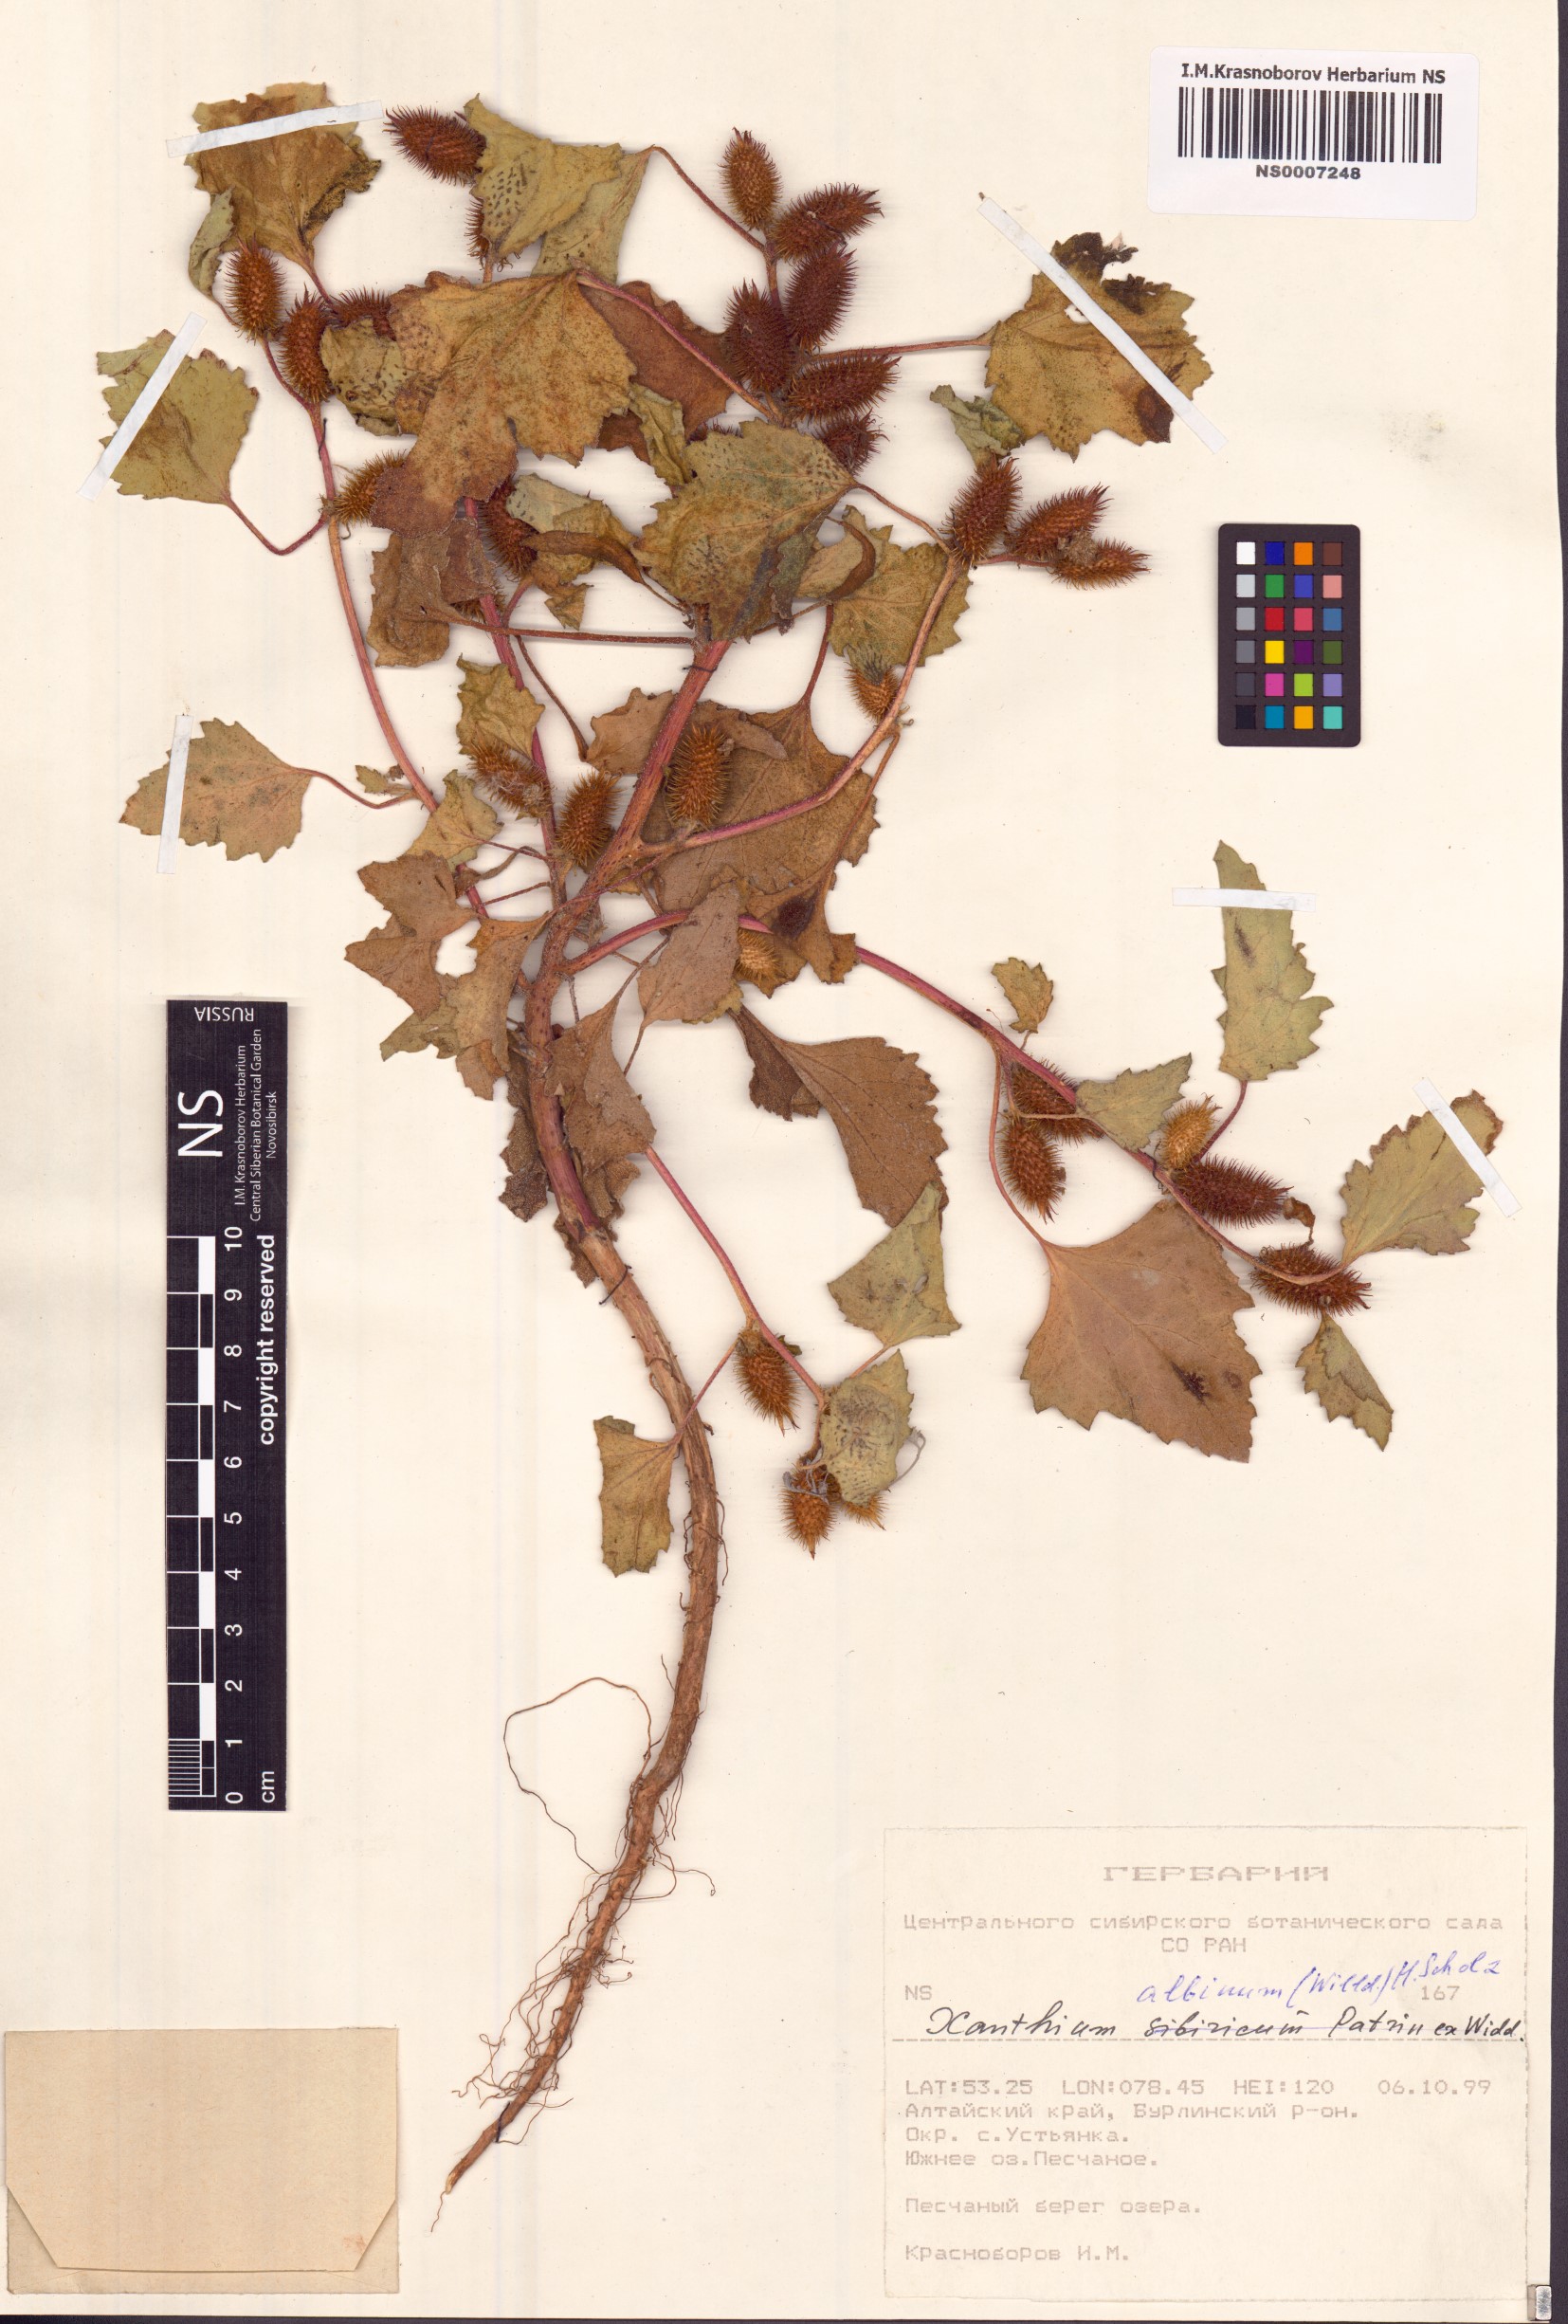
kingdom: Plantae
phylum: Tracheophyta
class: Magnoliopsida
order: Asterales
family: Asteraceae
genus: Xanthium
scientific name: Xanthium orientale
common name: Californian burr
